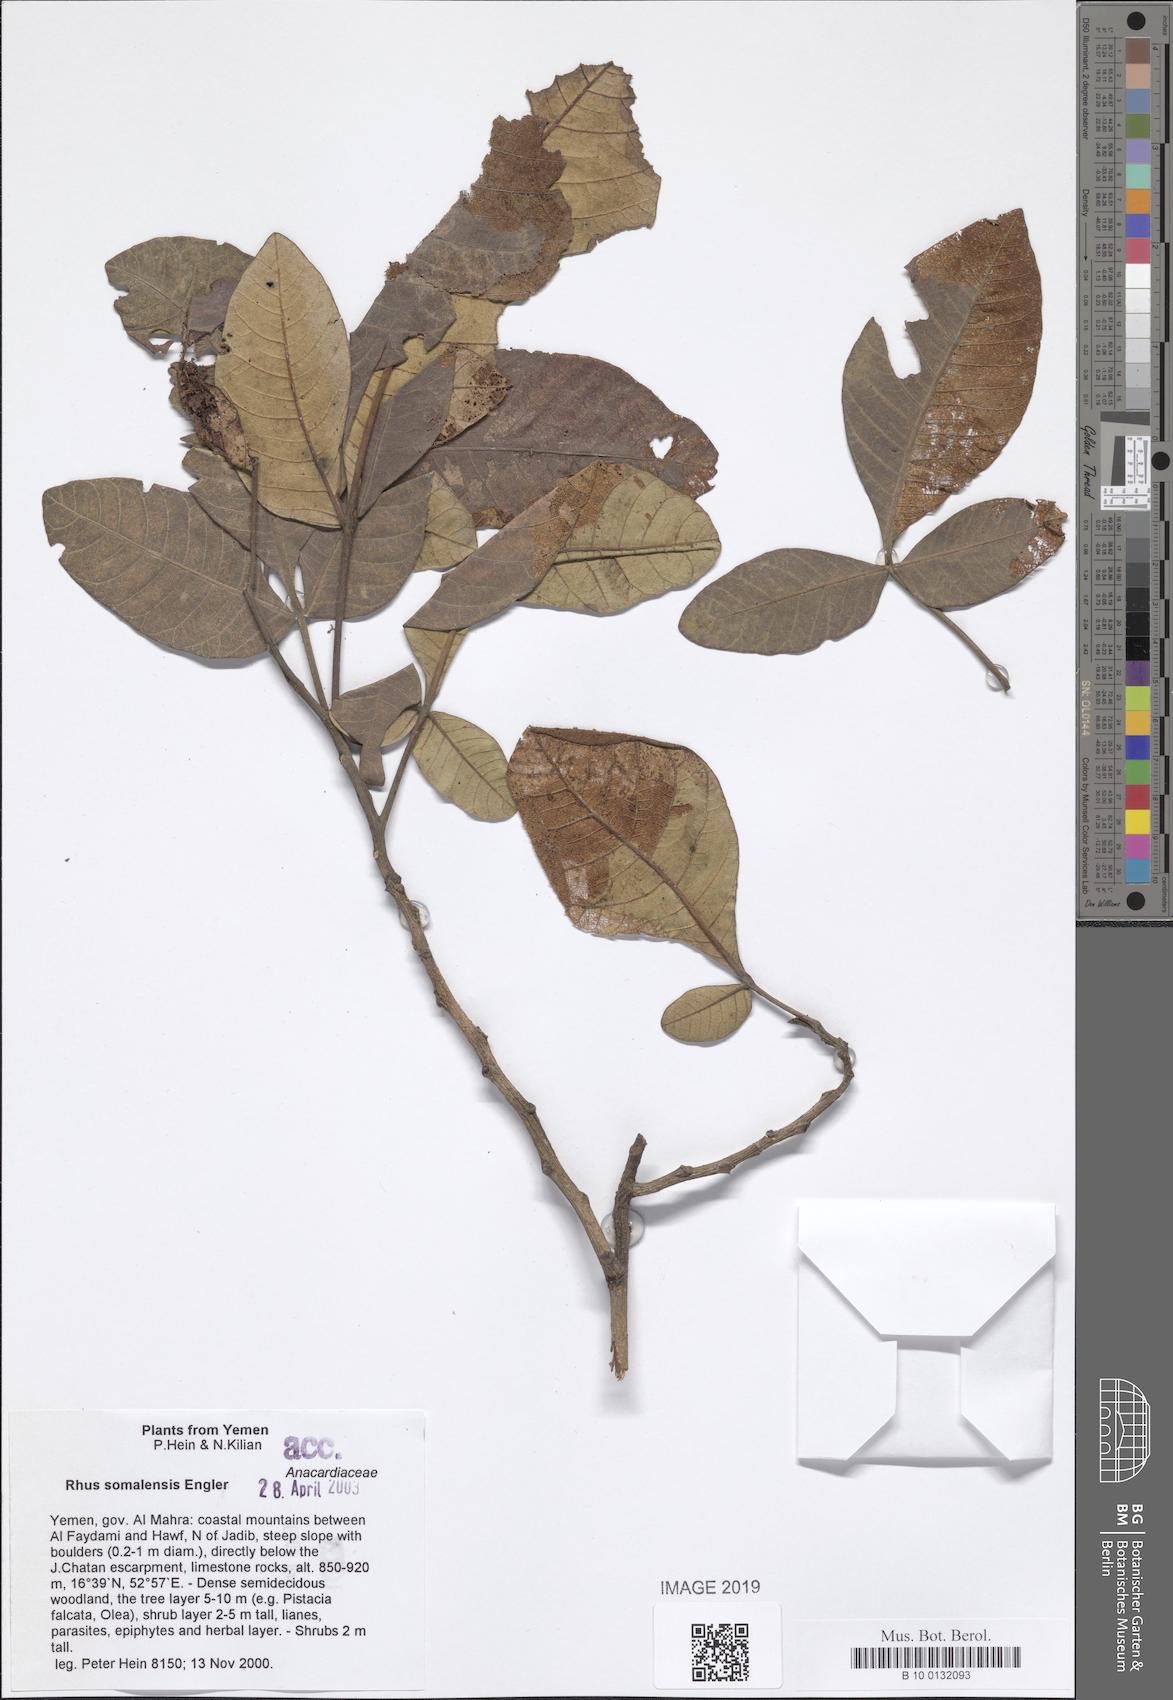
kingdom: Plantae
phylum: Tracheophyta
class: Magnoliopsida
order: Sapindales
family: Anacardiaceae
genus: Searsia
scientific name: Searsia somalensis
